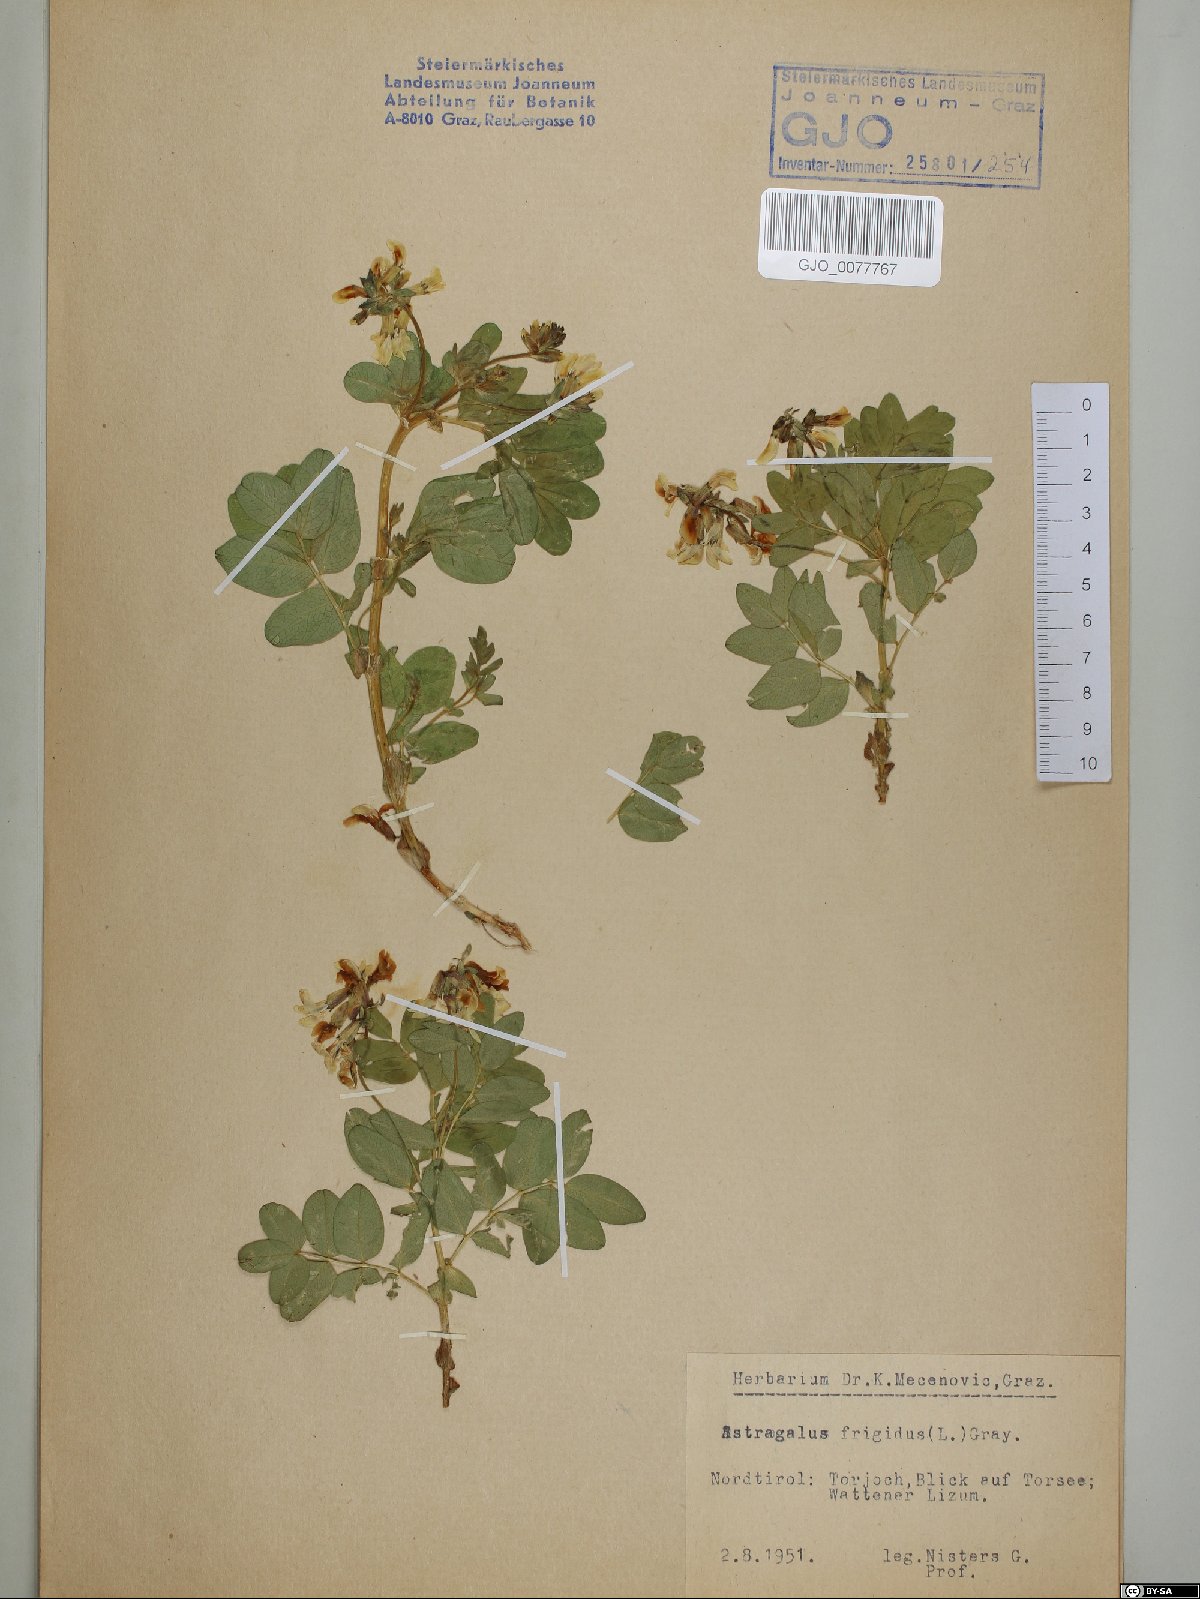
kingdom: Plantae
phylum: Tracheophyta
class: Magnoliopsida
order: Fabales
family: Fabaceae
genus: Astragalus
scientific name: Astragalus frigidus
